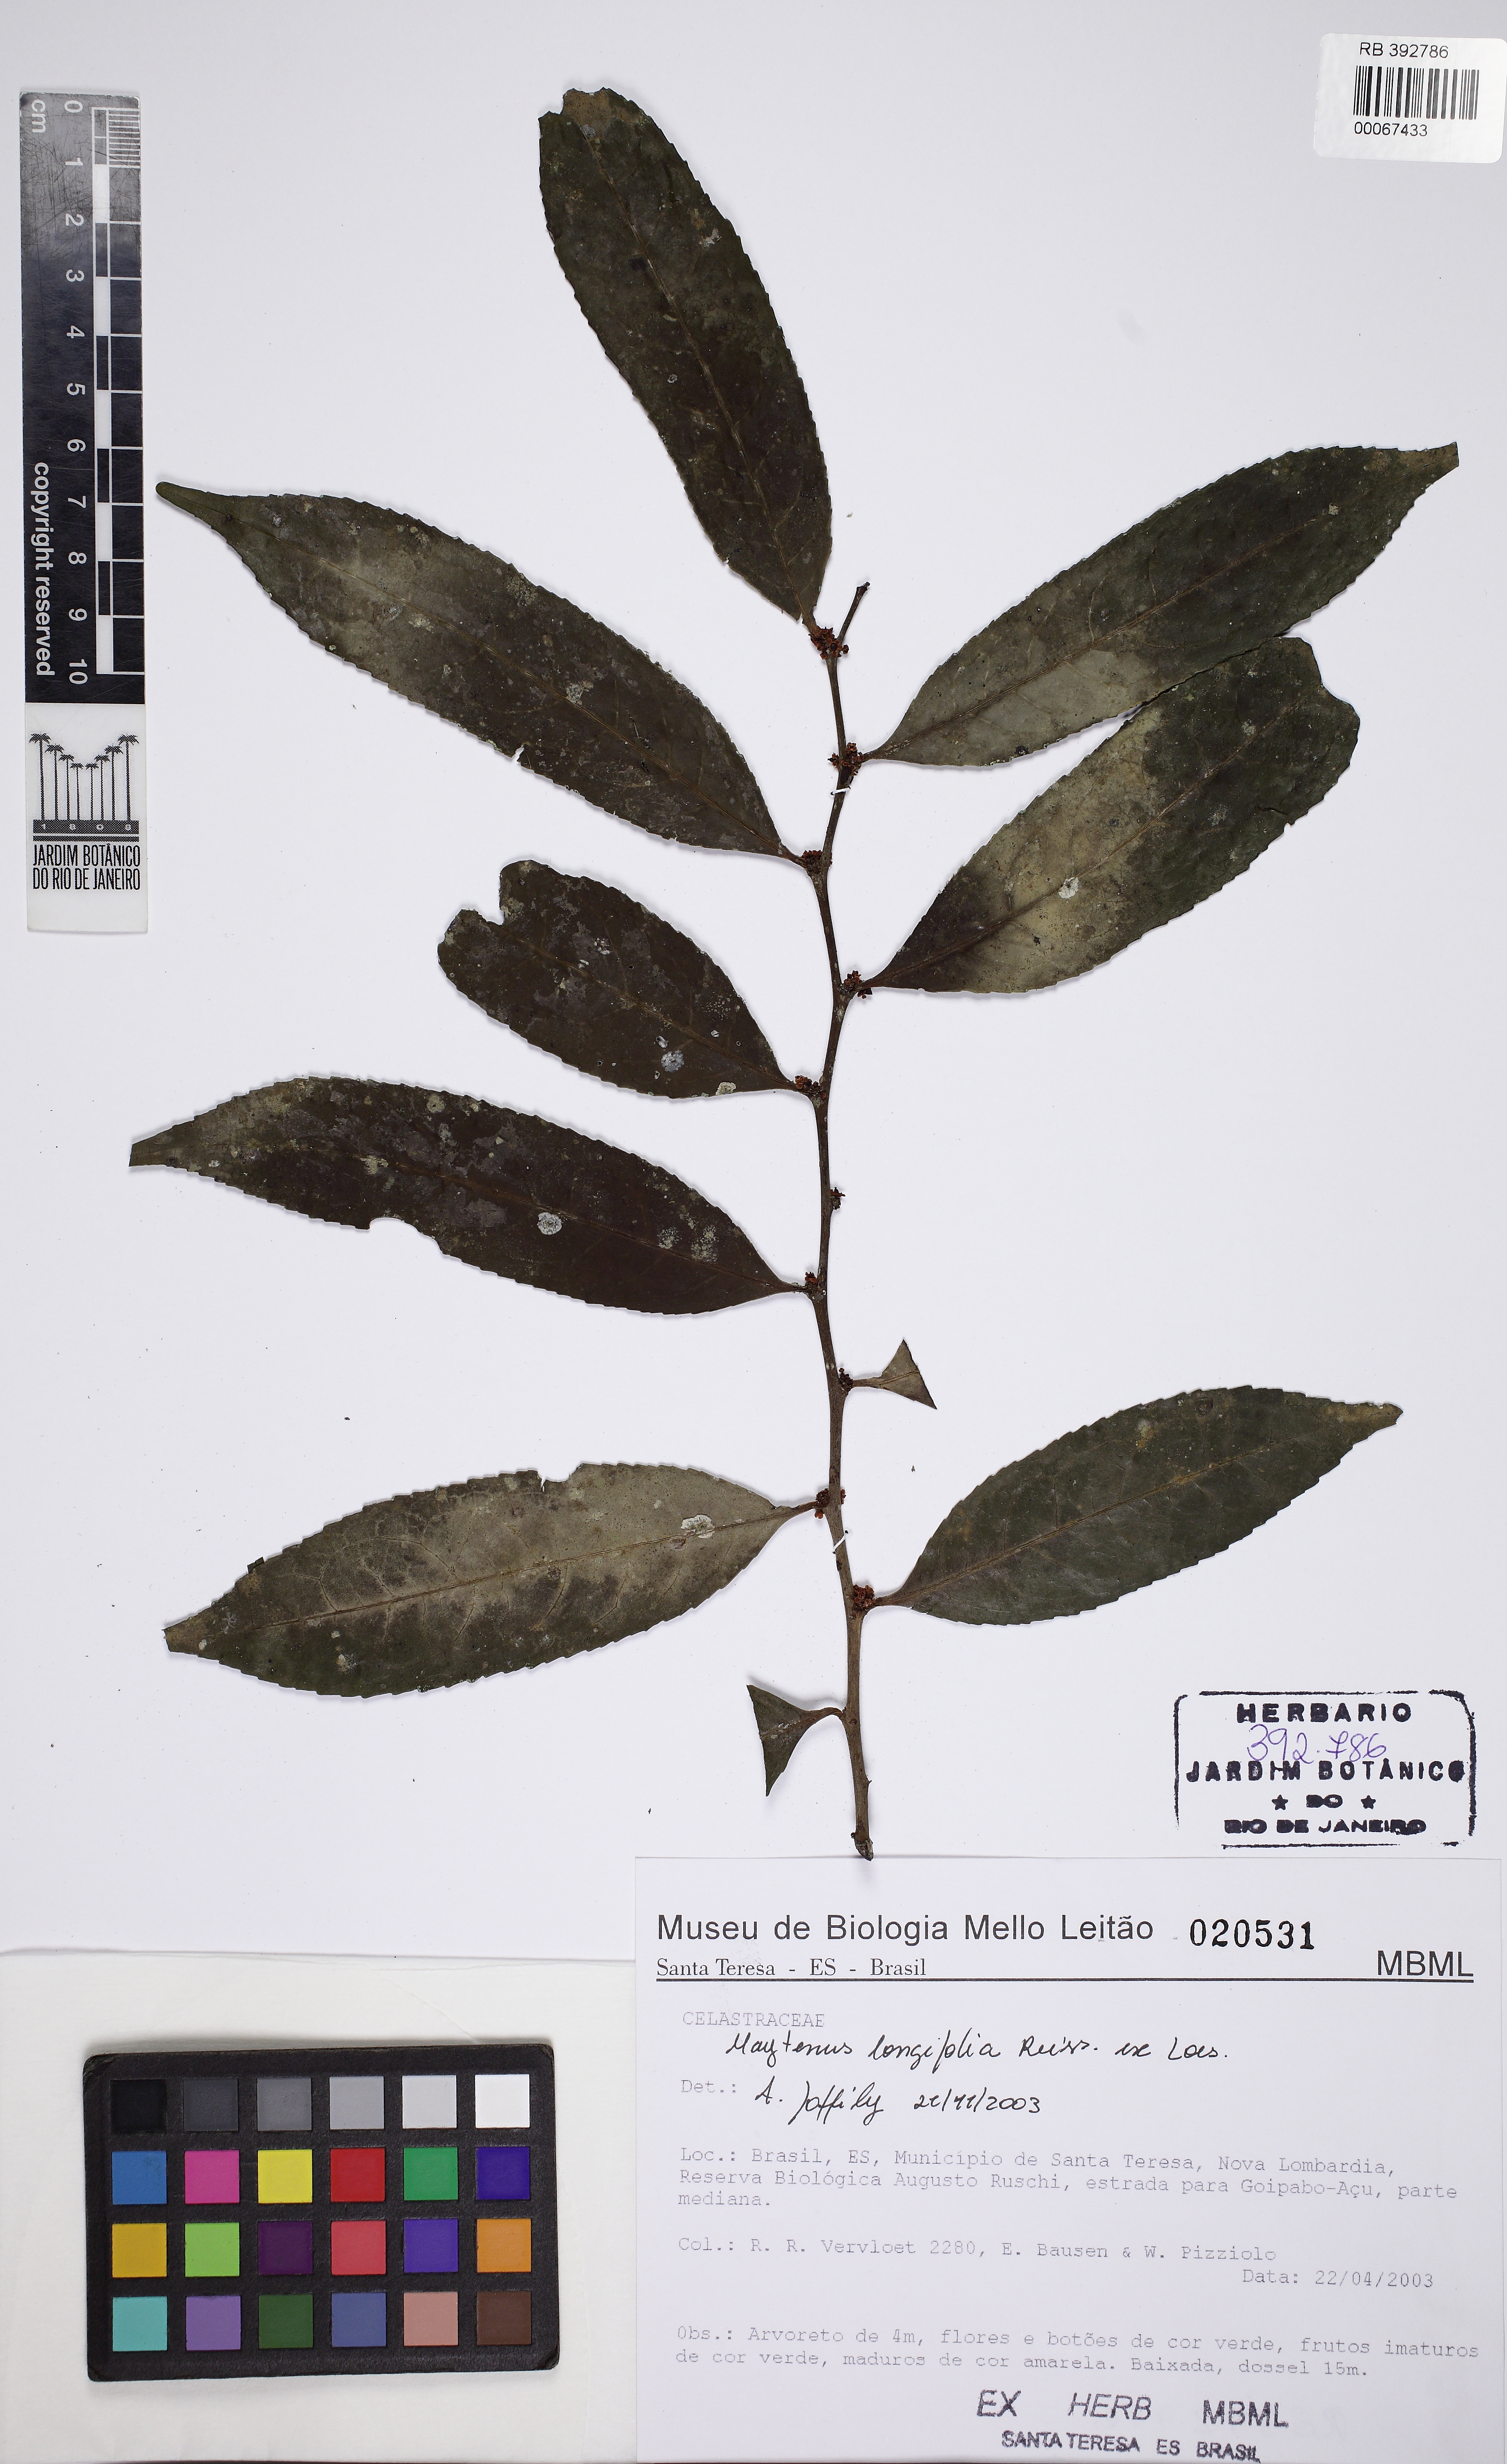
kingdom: Plantae
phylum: Tracheophyta
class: Magnoliopsida
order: Celastrales
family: Celastraceae
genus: Monteverdia
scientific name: Monteverdia longifolia
